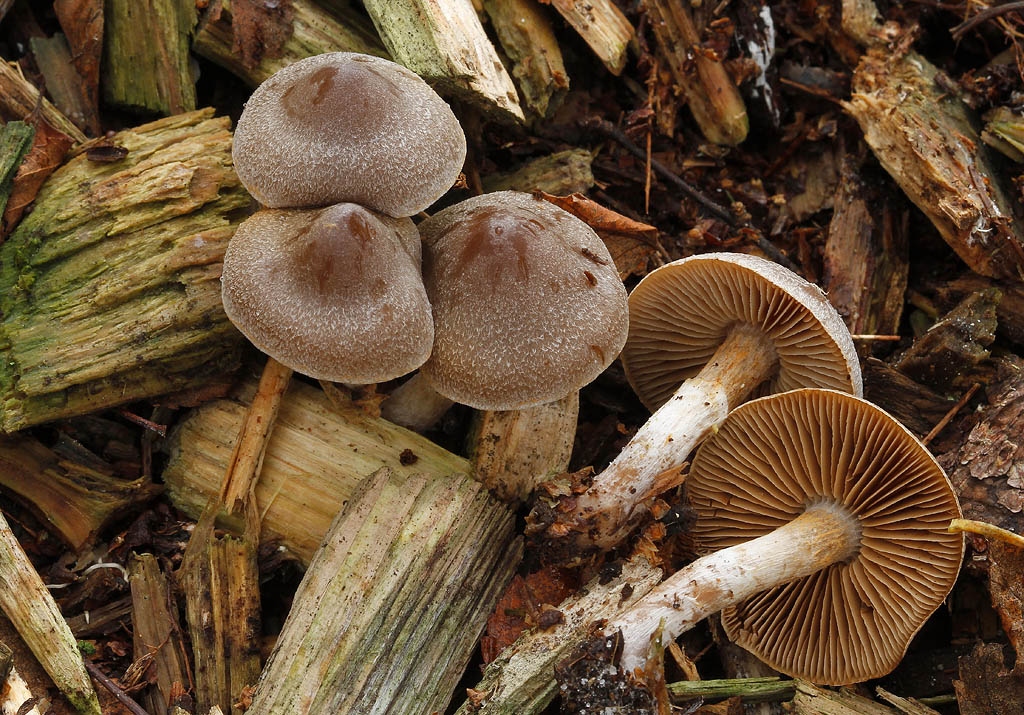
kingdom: Fungi
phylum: Basidiomycota
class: Agaricomycetes
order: Agaricales
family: Cortinariaceae
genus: Cortinarius
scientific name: Cortinarius hemitrichus
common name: hvidfnugget slørhat
